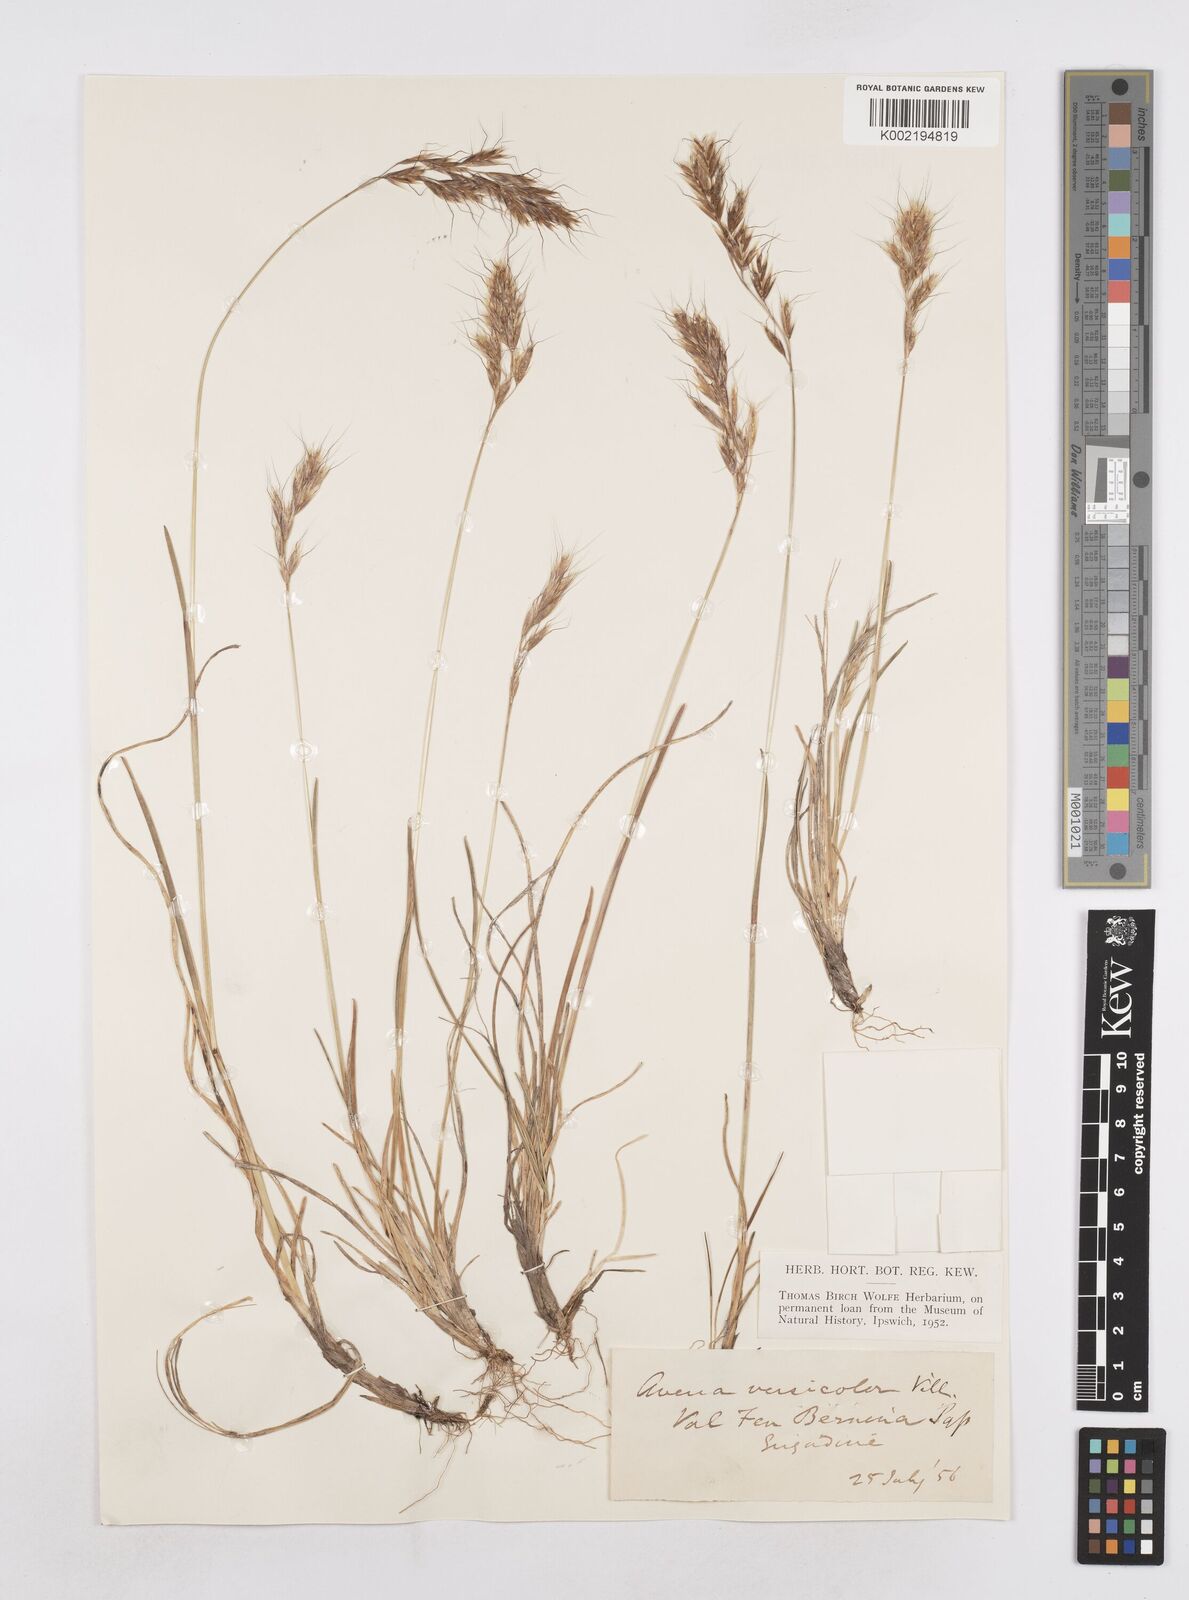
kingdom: Plantae
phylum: Tracheophyta
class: Liliopsida
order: Poales
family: Poaceae
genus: Helictochloa
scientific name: Helictochloa versicolor
